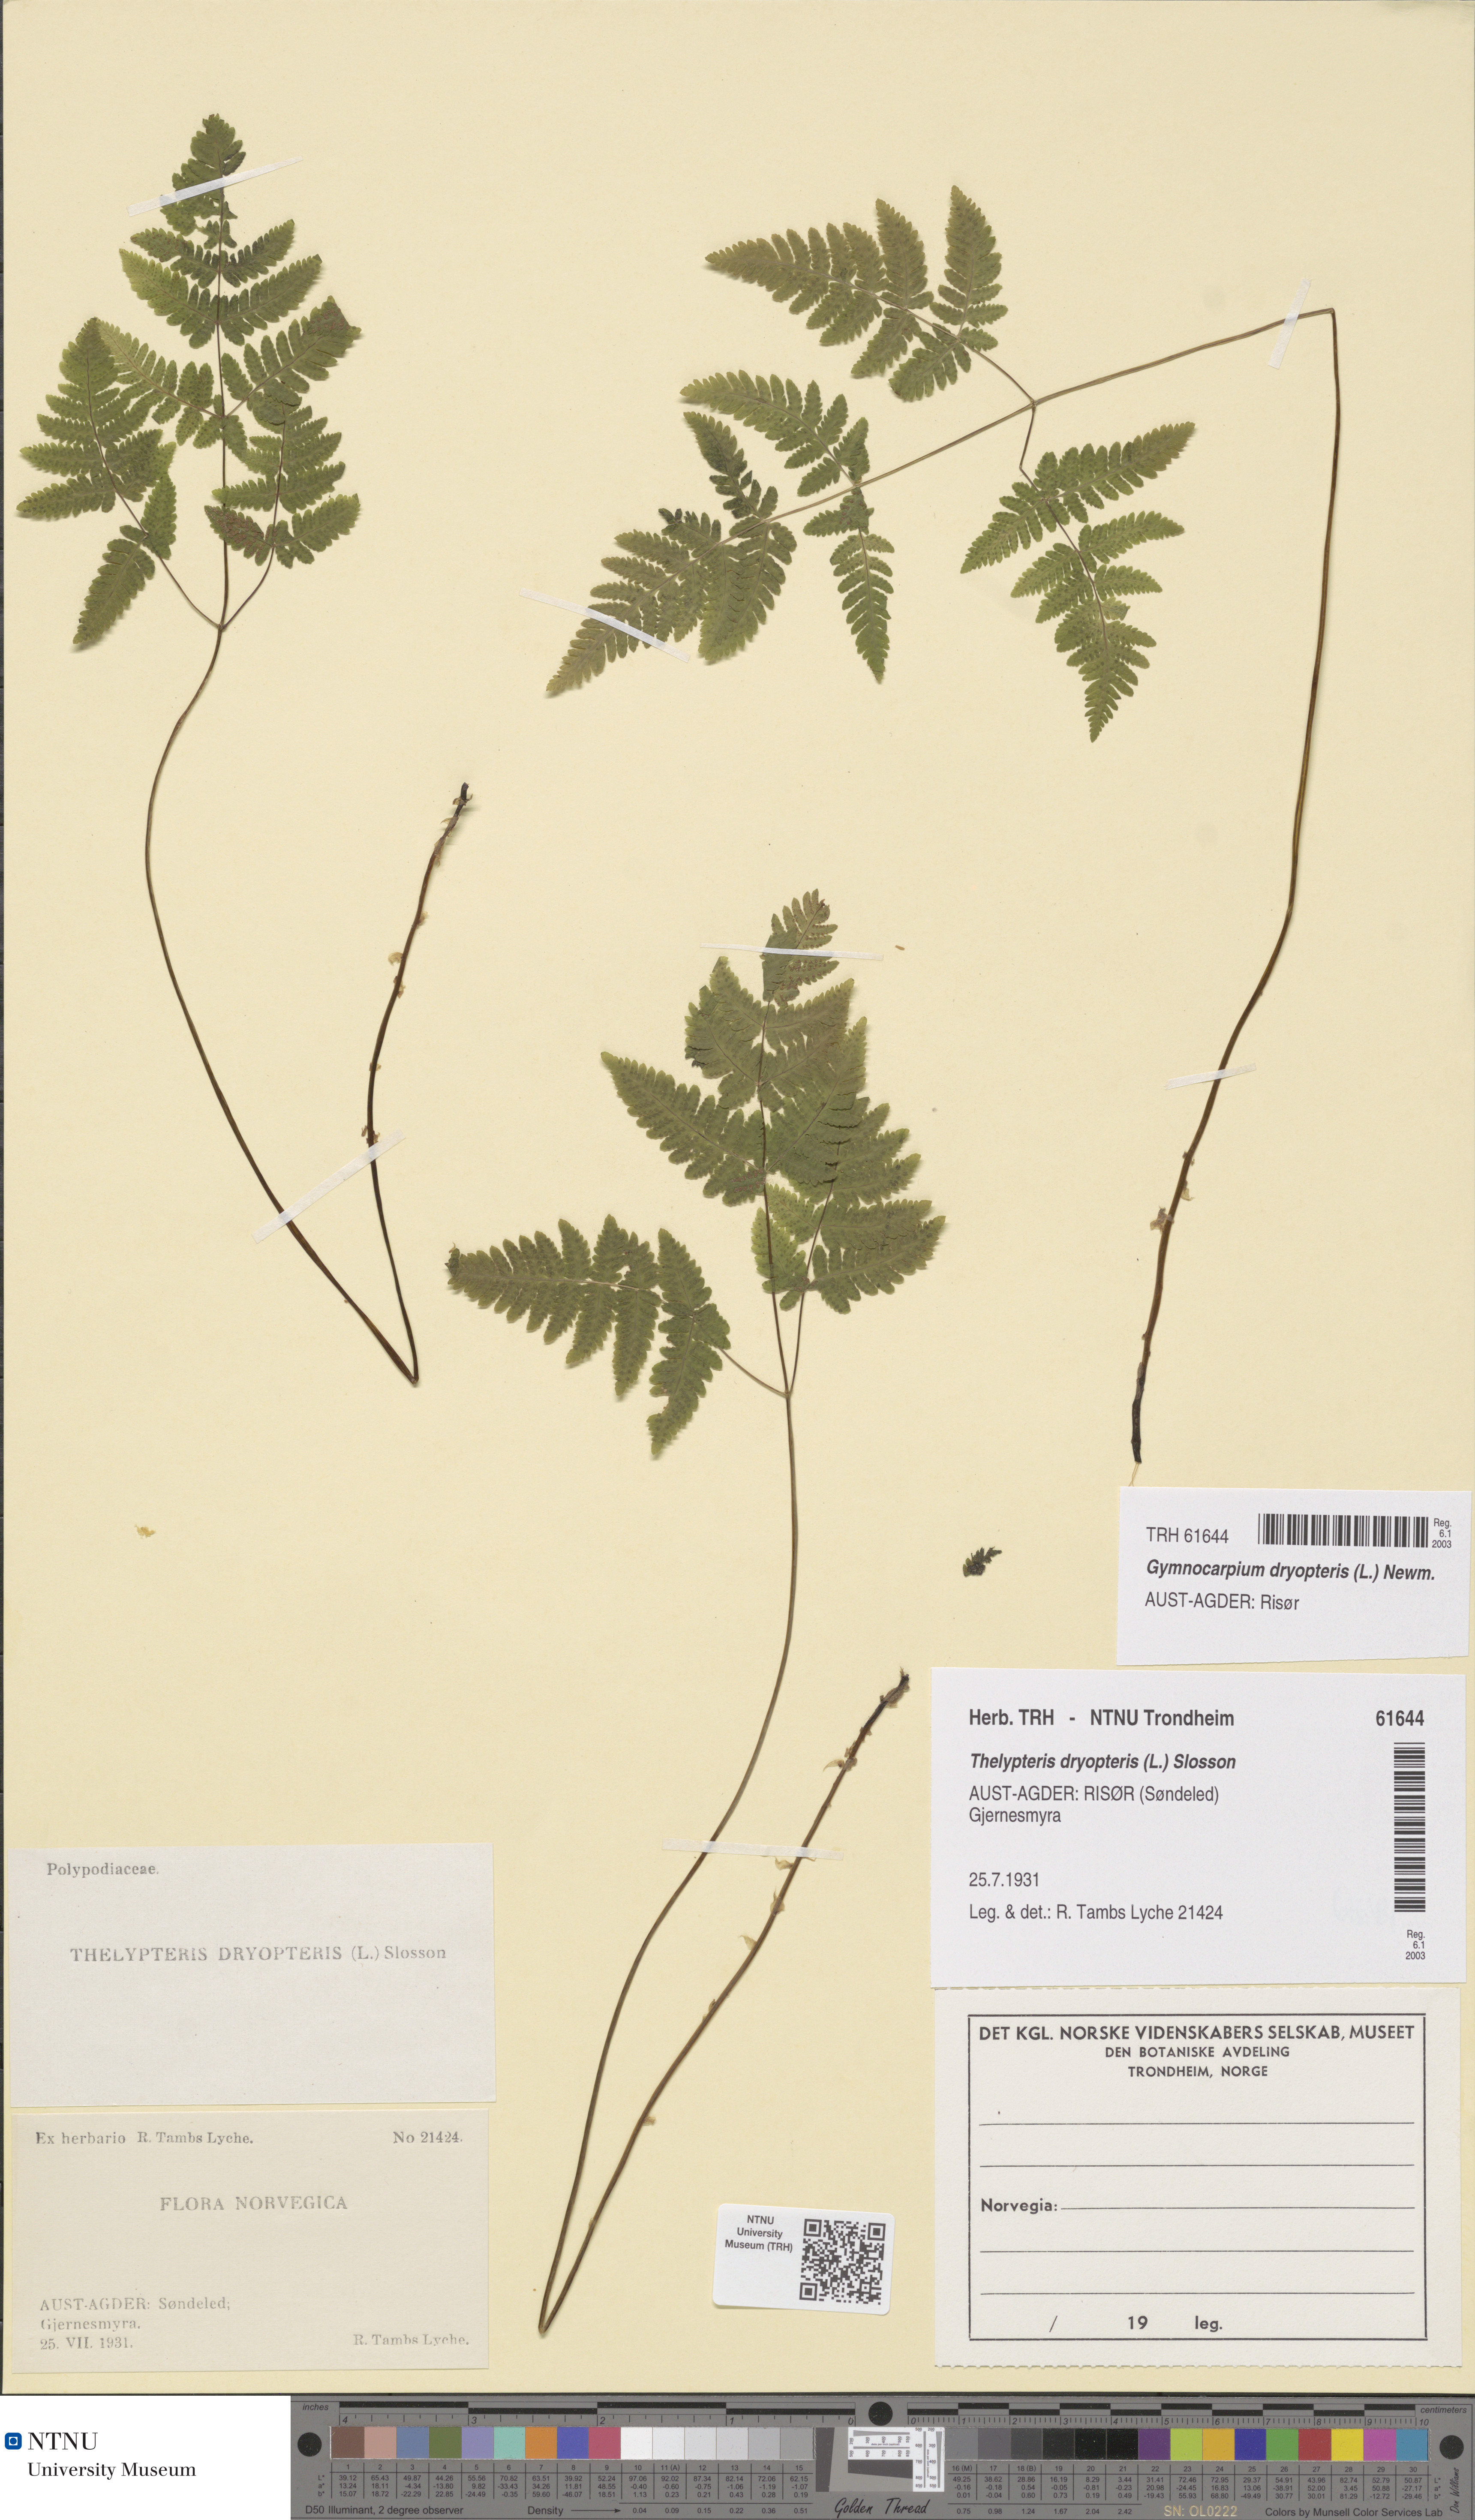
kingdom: Plantae
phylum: Tracheophyta
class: Polypodiopsida
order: Polypodiales
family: Cystopteridaceae
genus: Gymnocarpium
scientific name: Gymnocarpium dryopteris
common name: Oak fern
